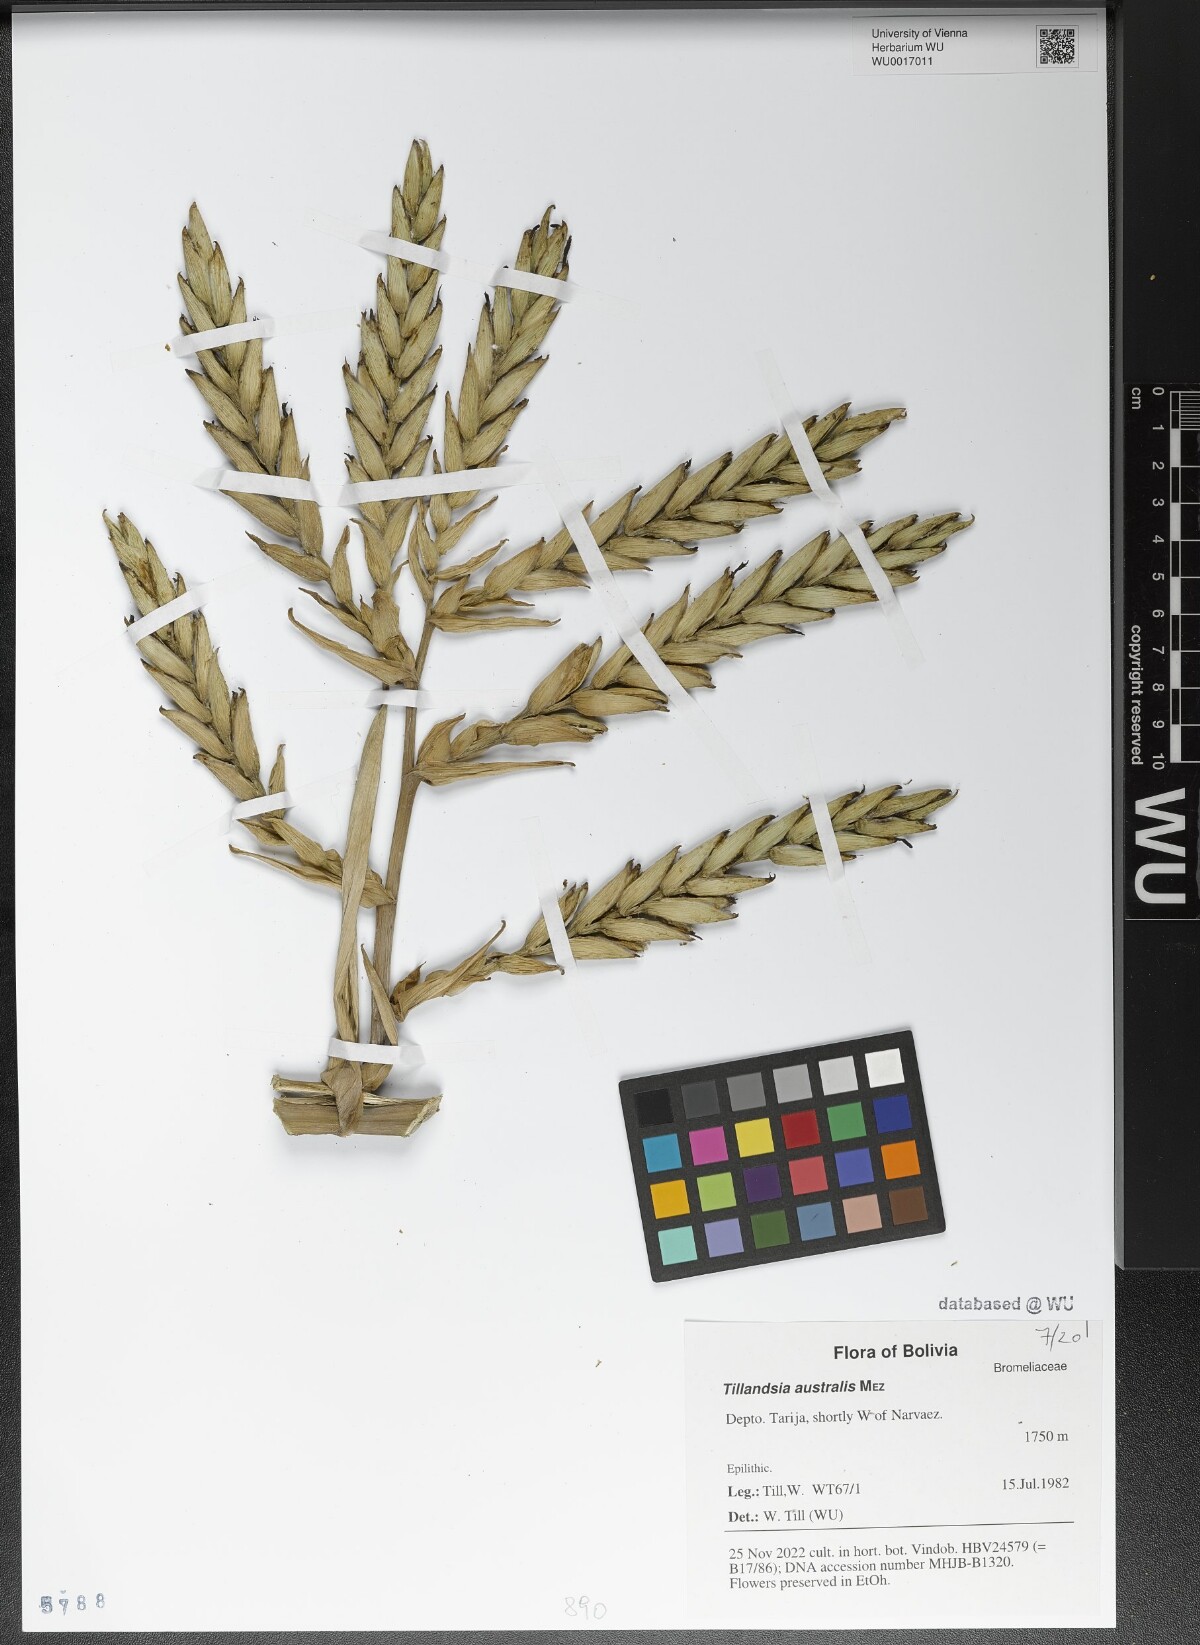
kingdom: Plantae
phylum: Tracheophyta
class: Liliopsida
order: Poales
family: Bromeliaceae
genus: Tillandsia
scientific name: Tillandsia australis
